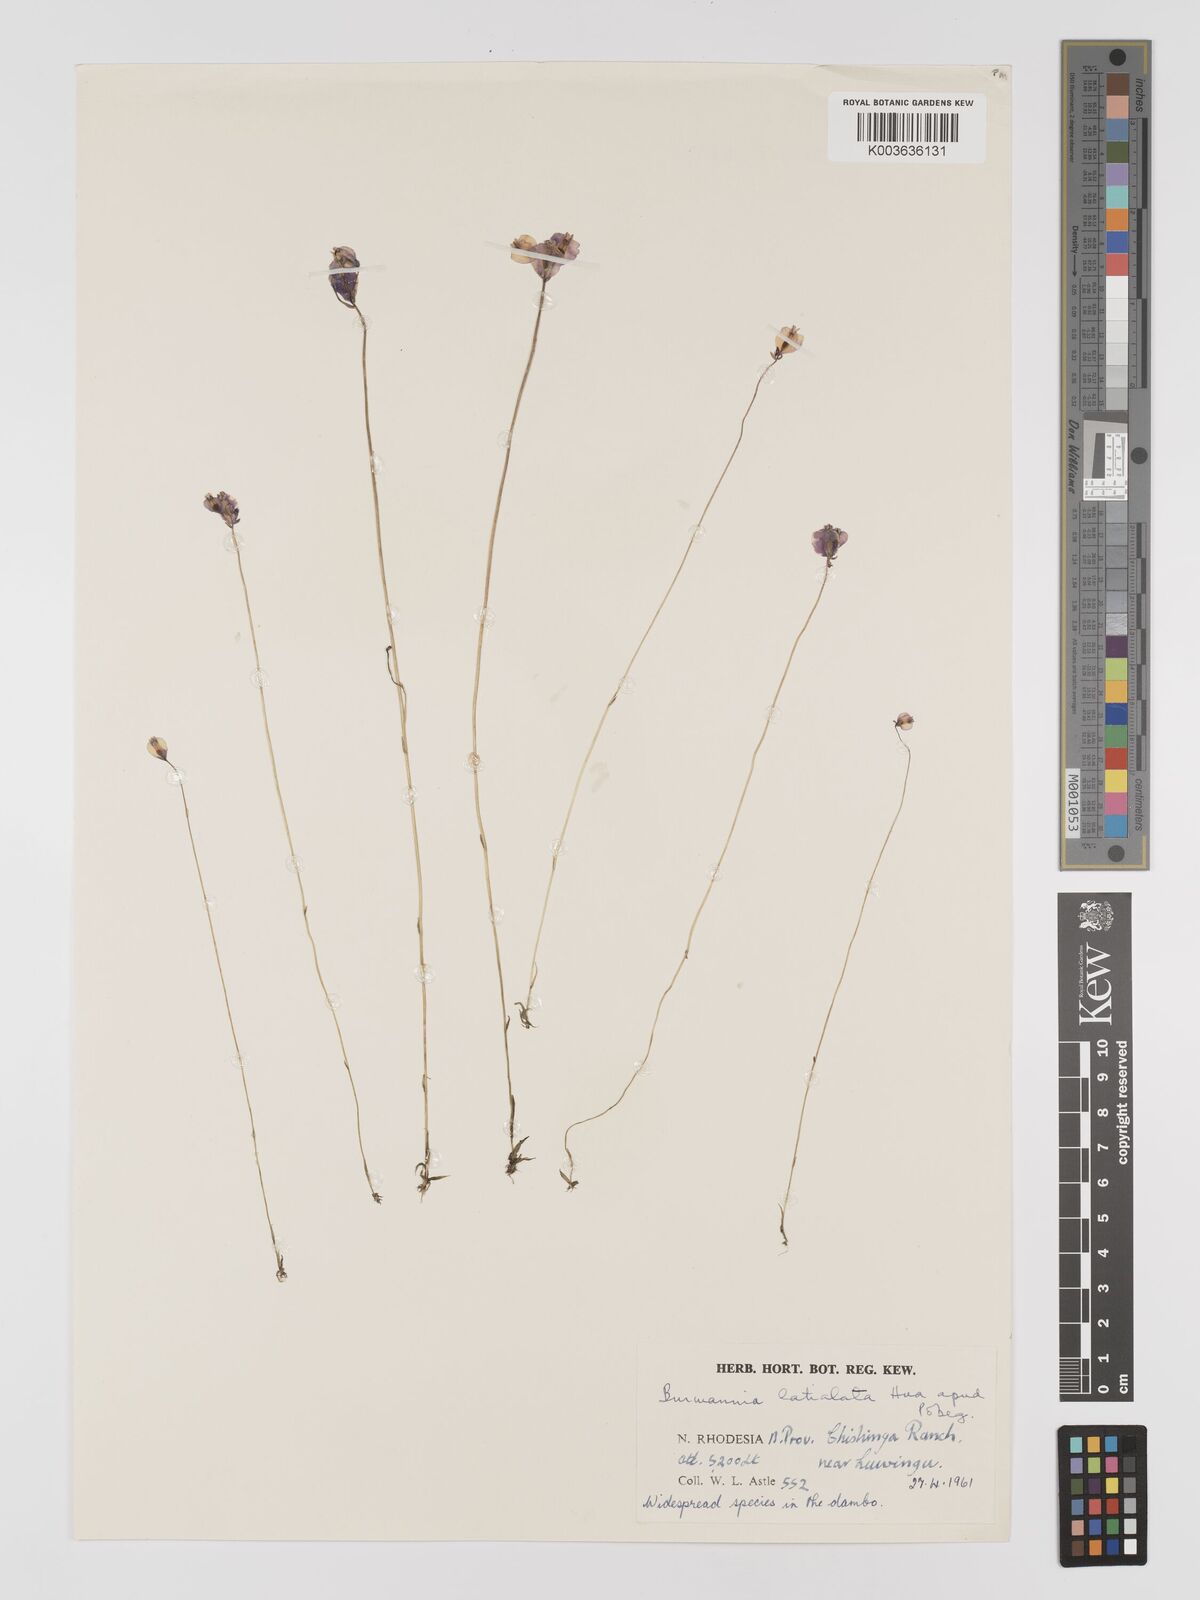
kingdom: Plantae
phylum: Tracheophyta
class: Liliopsida
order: Dioscoreales
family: Burmanniaceae
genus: Burmannia
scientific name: Burmannia madagascariensis
